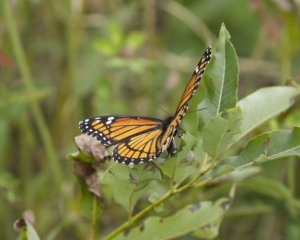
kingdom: Animalia
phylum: Arthropoda
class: Insecta
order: Lepidoptera
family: Nymphalidae
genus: Limenitis
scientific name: Limenitis archippus
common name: Viceroy
